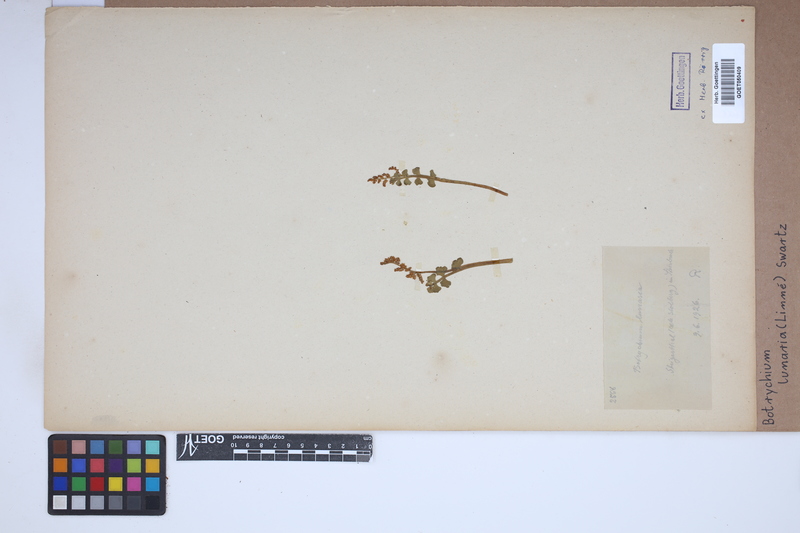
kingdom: Plantae
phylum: Tracheophyta
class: Polypodiopsida
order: Ophioglossales
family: Ophioglossaceae
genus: Botrychium
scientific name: Botrychium lunaria
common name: Moonwort
